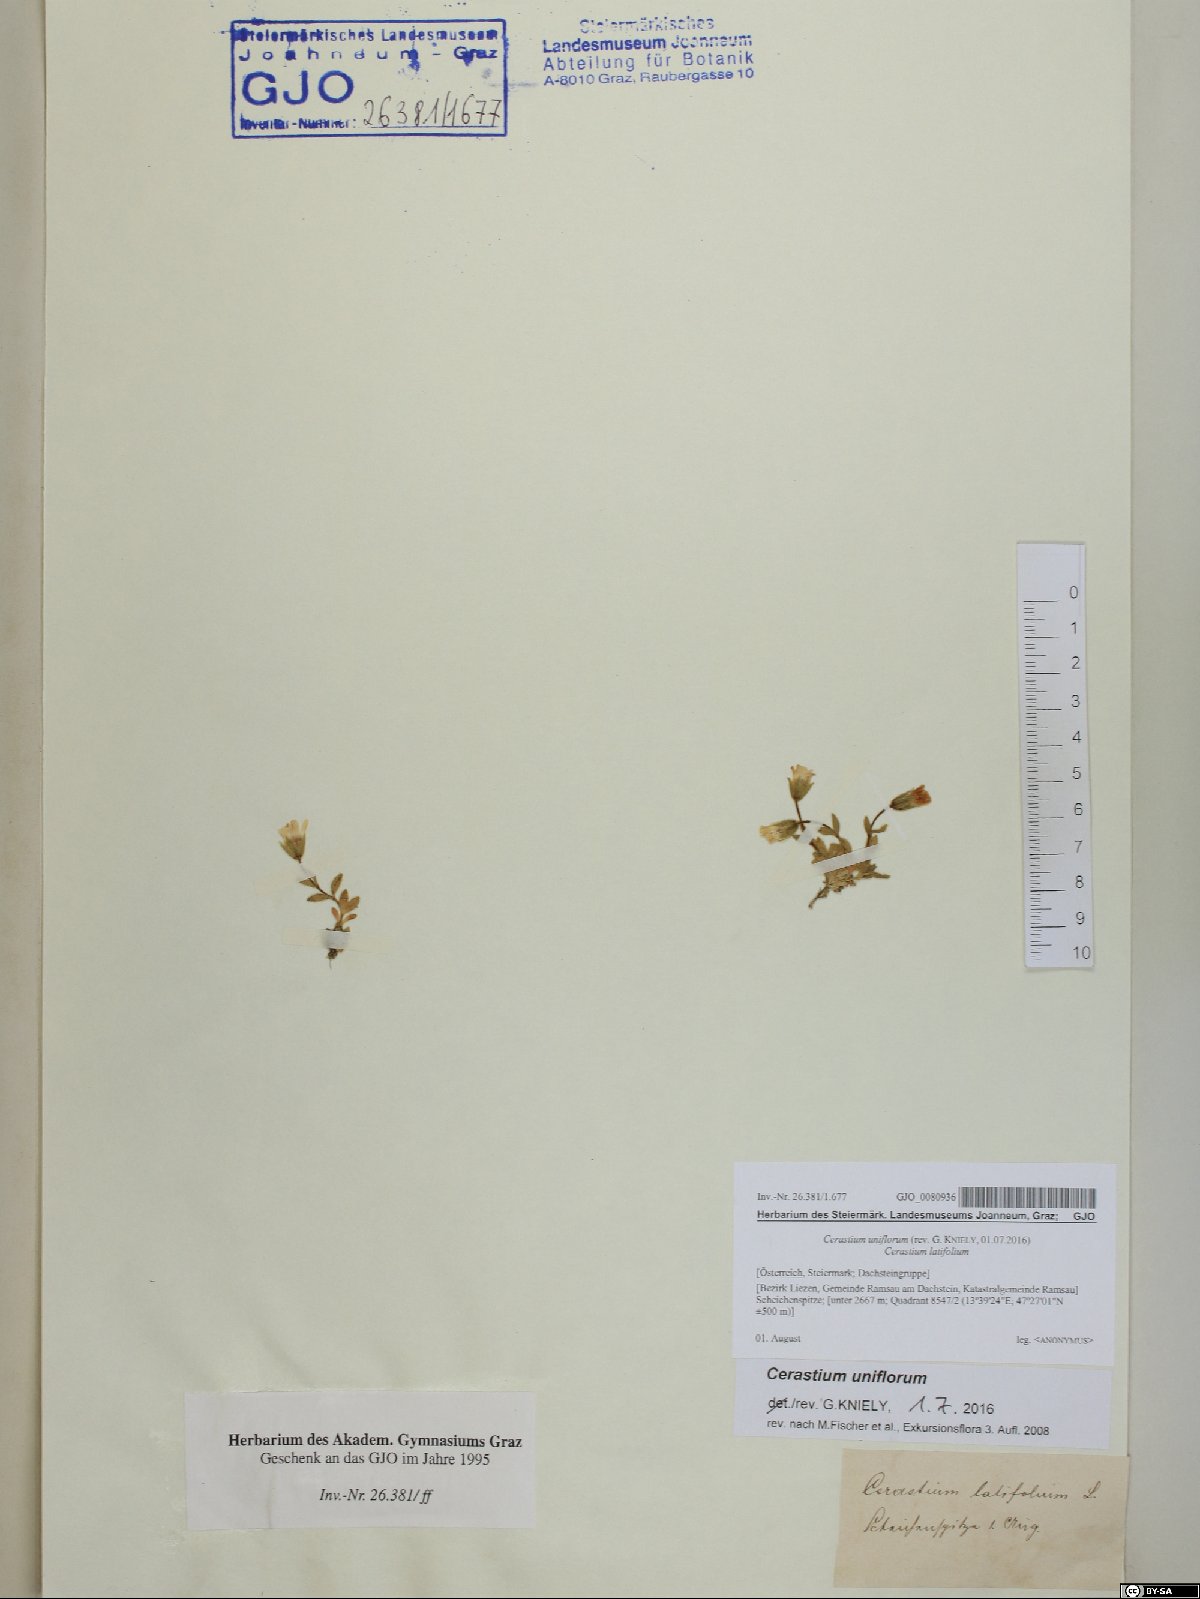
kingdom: Plantae
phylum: Tracheophyta
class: Magnoliopsida
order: Caryophyllales
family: Caryophyllaceae
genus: Cerastium
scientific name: Cerastium uniflorum
